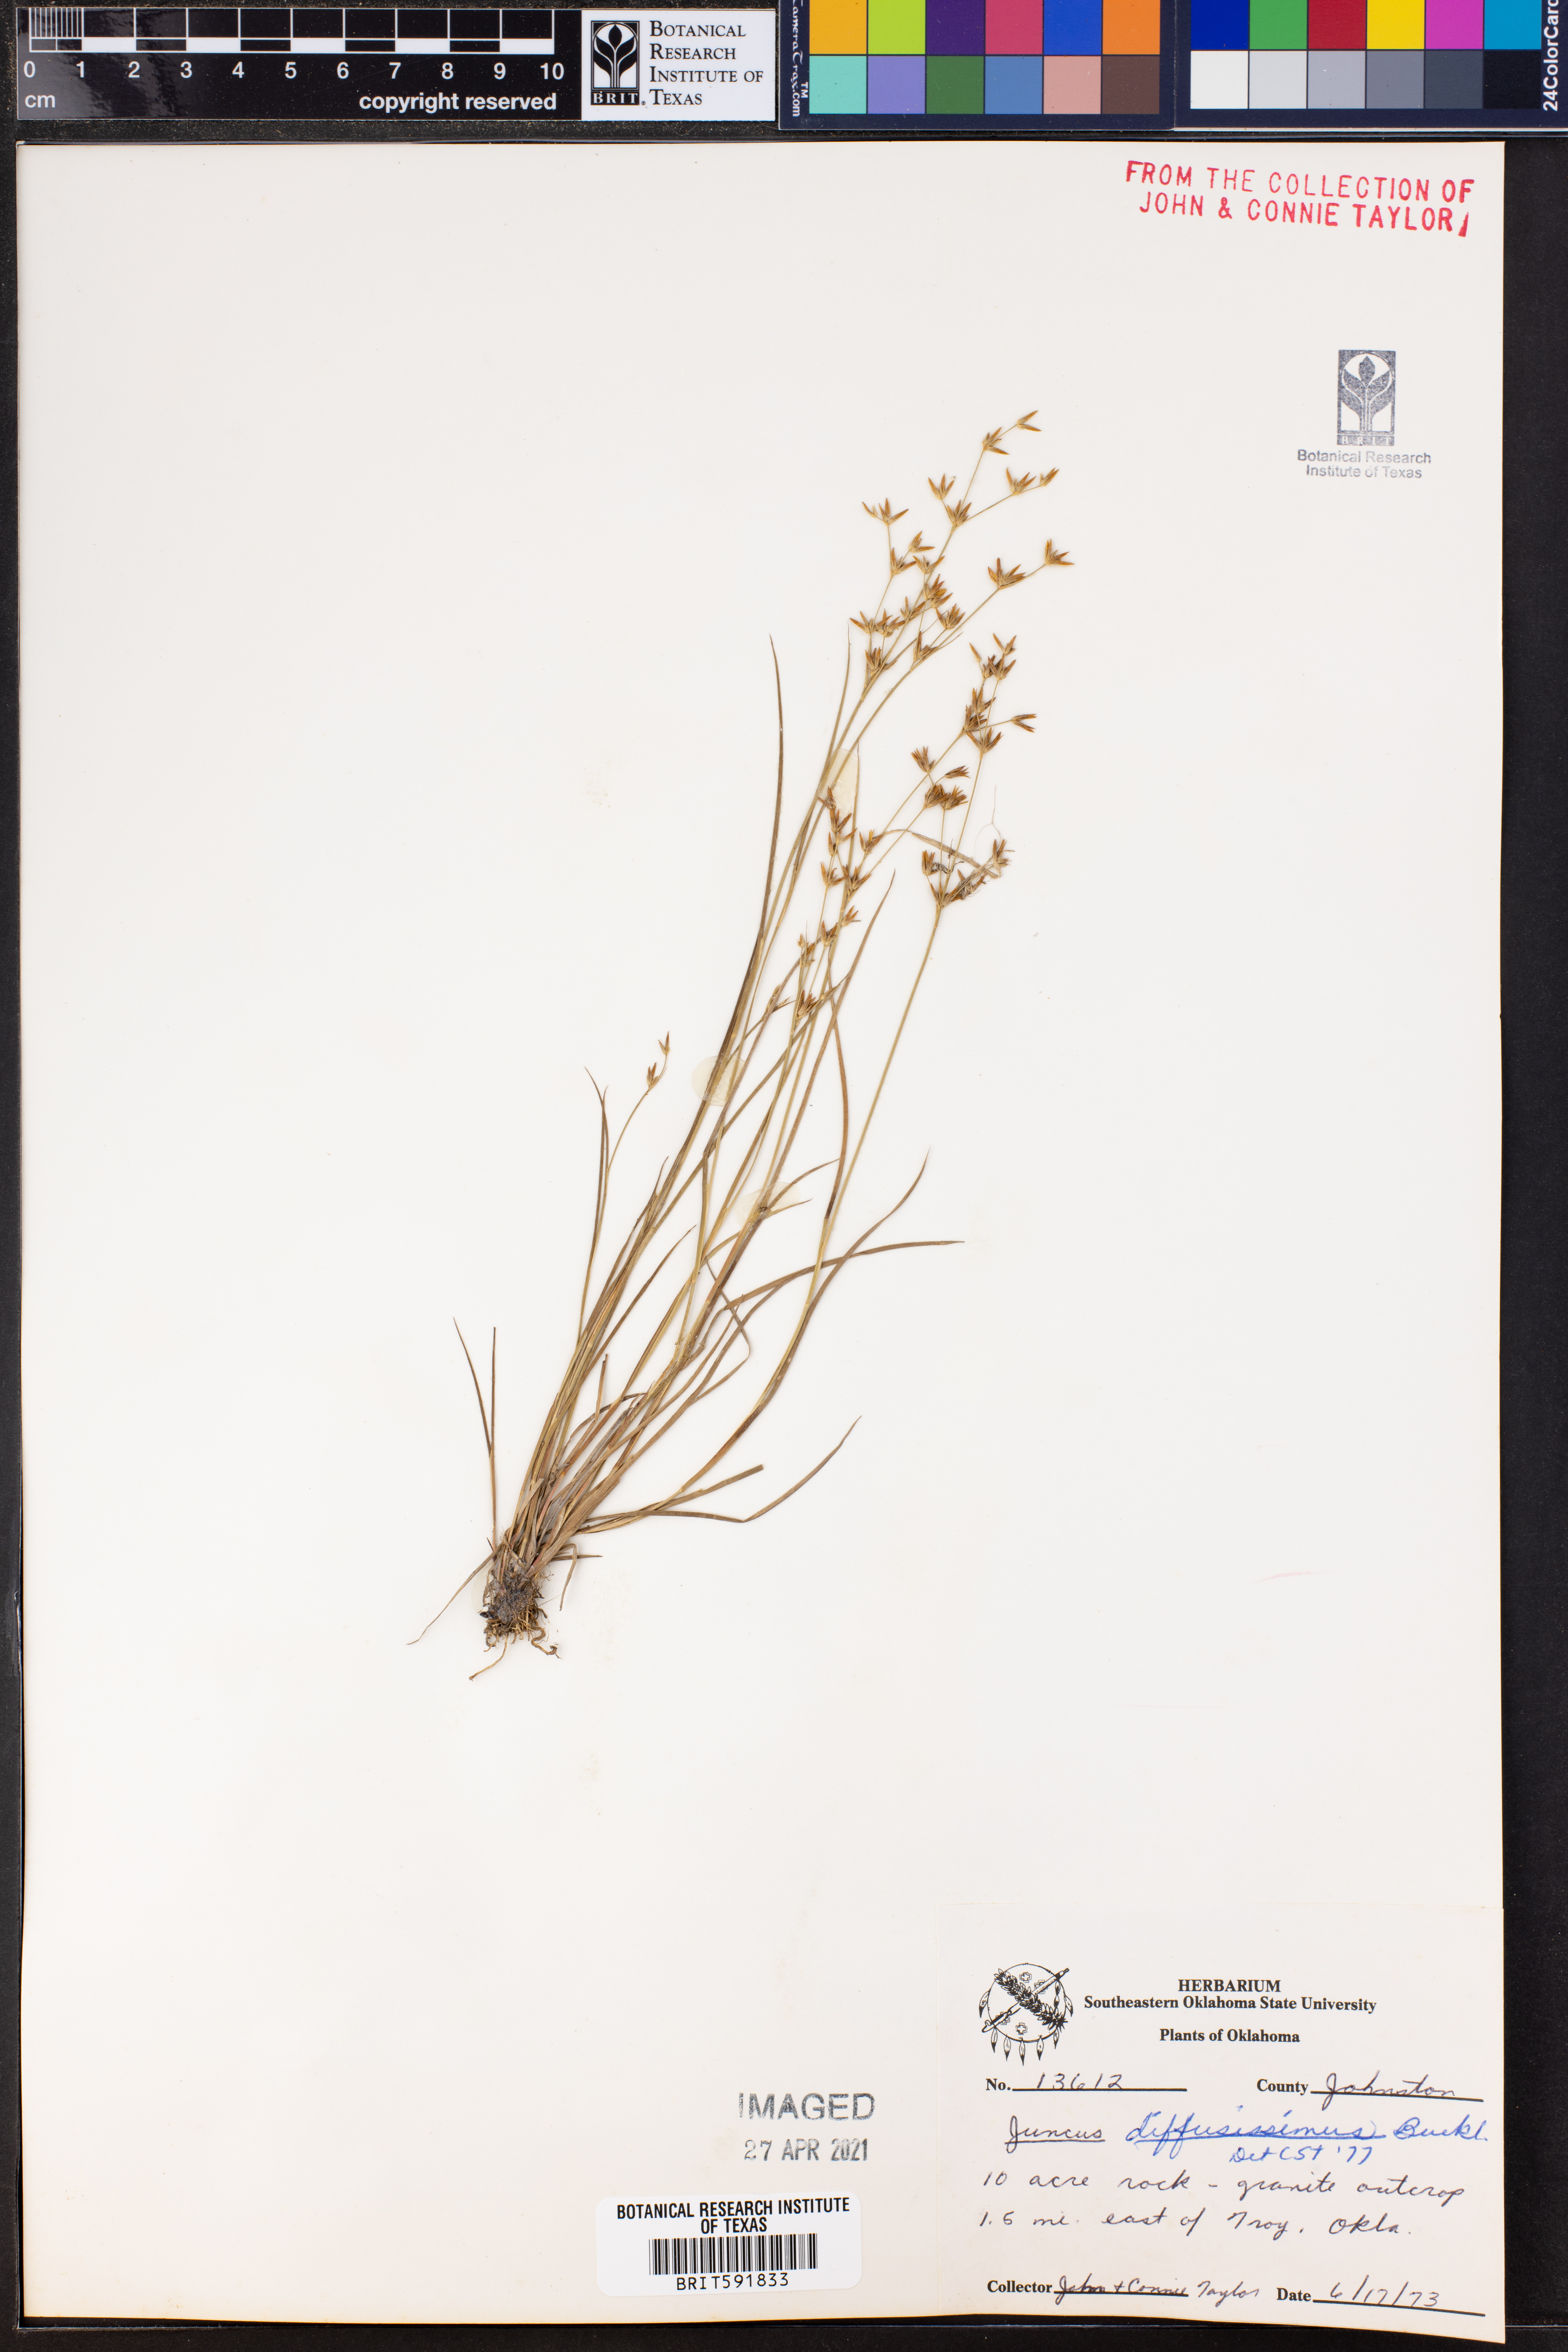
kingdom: Plantae
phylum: Tracheophyta
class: Liliopsida
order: Poales
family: Juncaceae
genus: Juncus
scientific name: Juncus diffusissimus
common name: Slimpod rush
